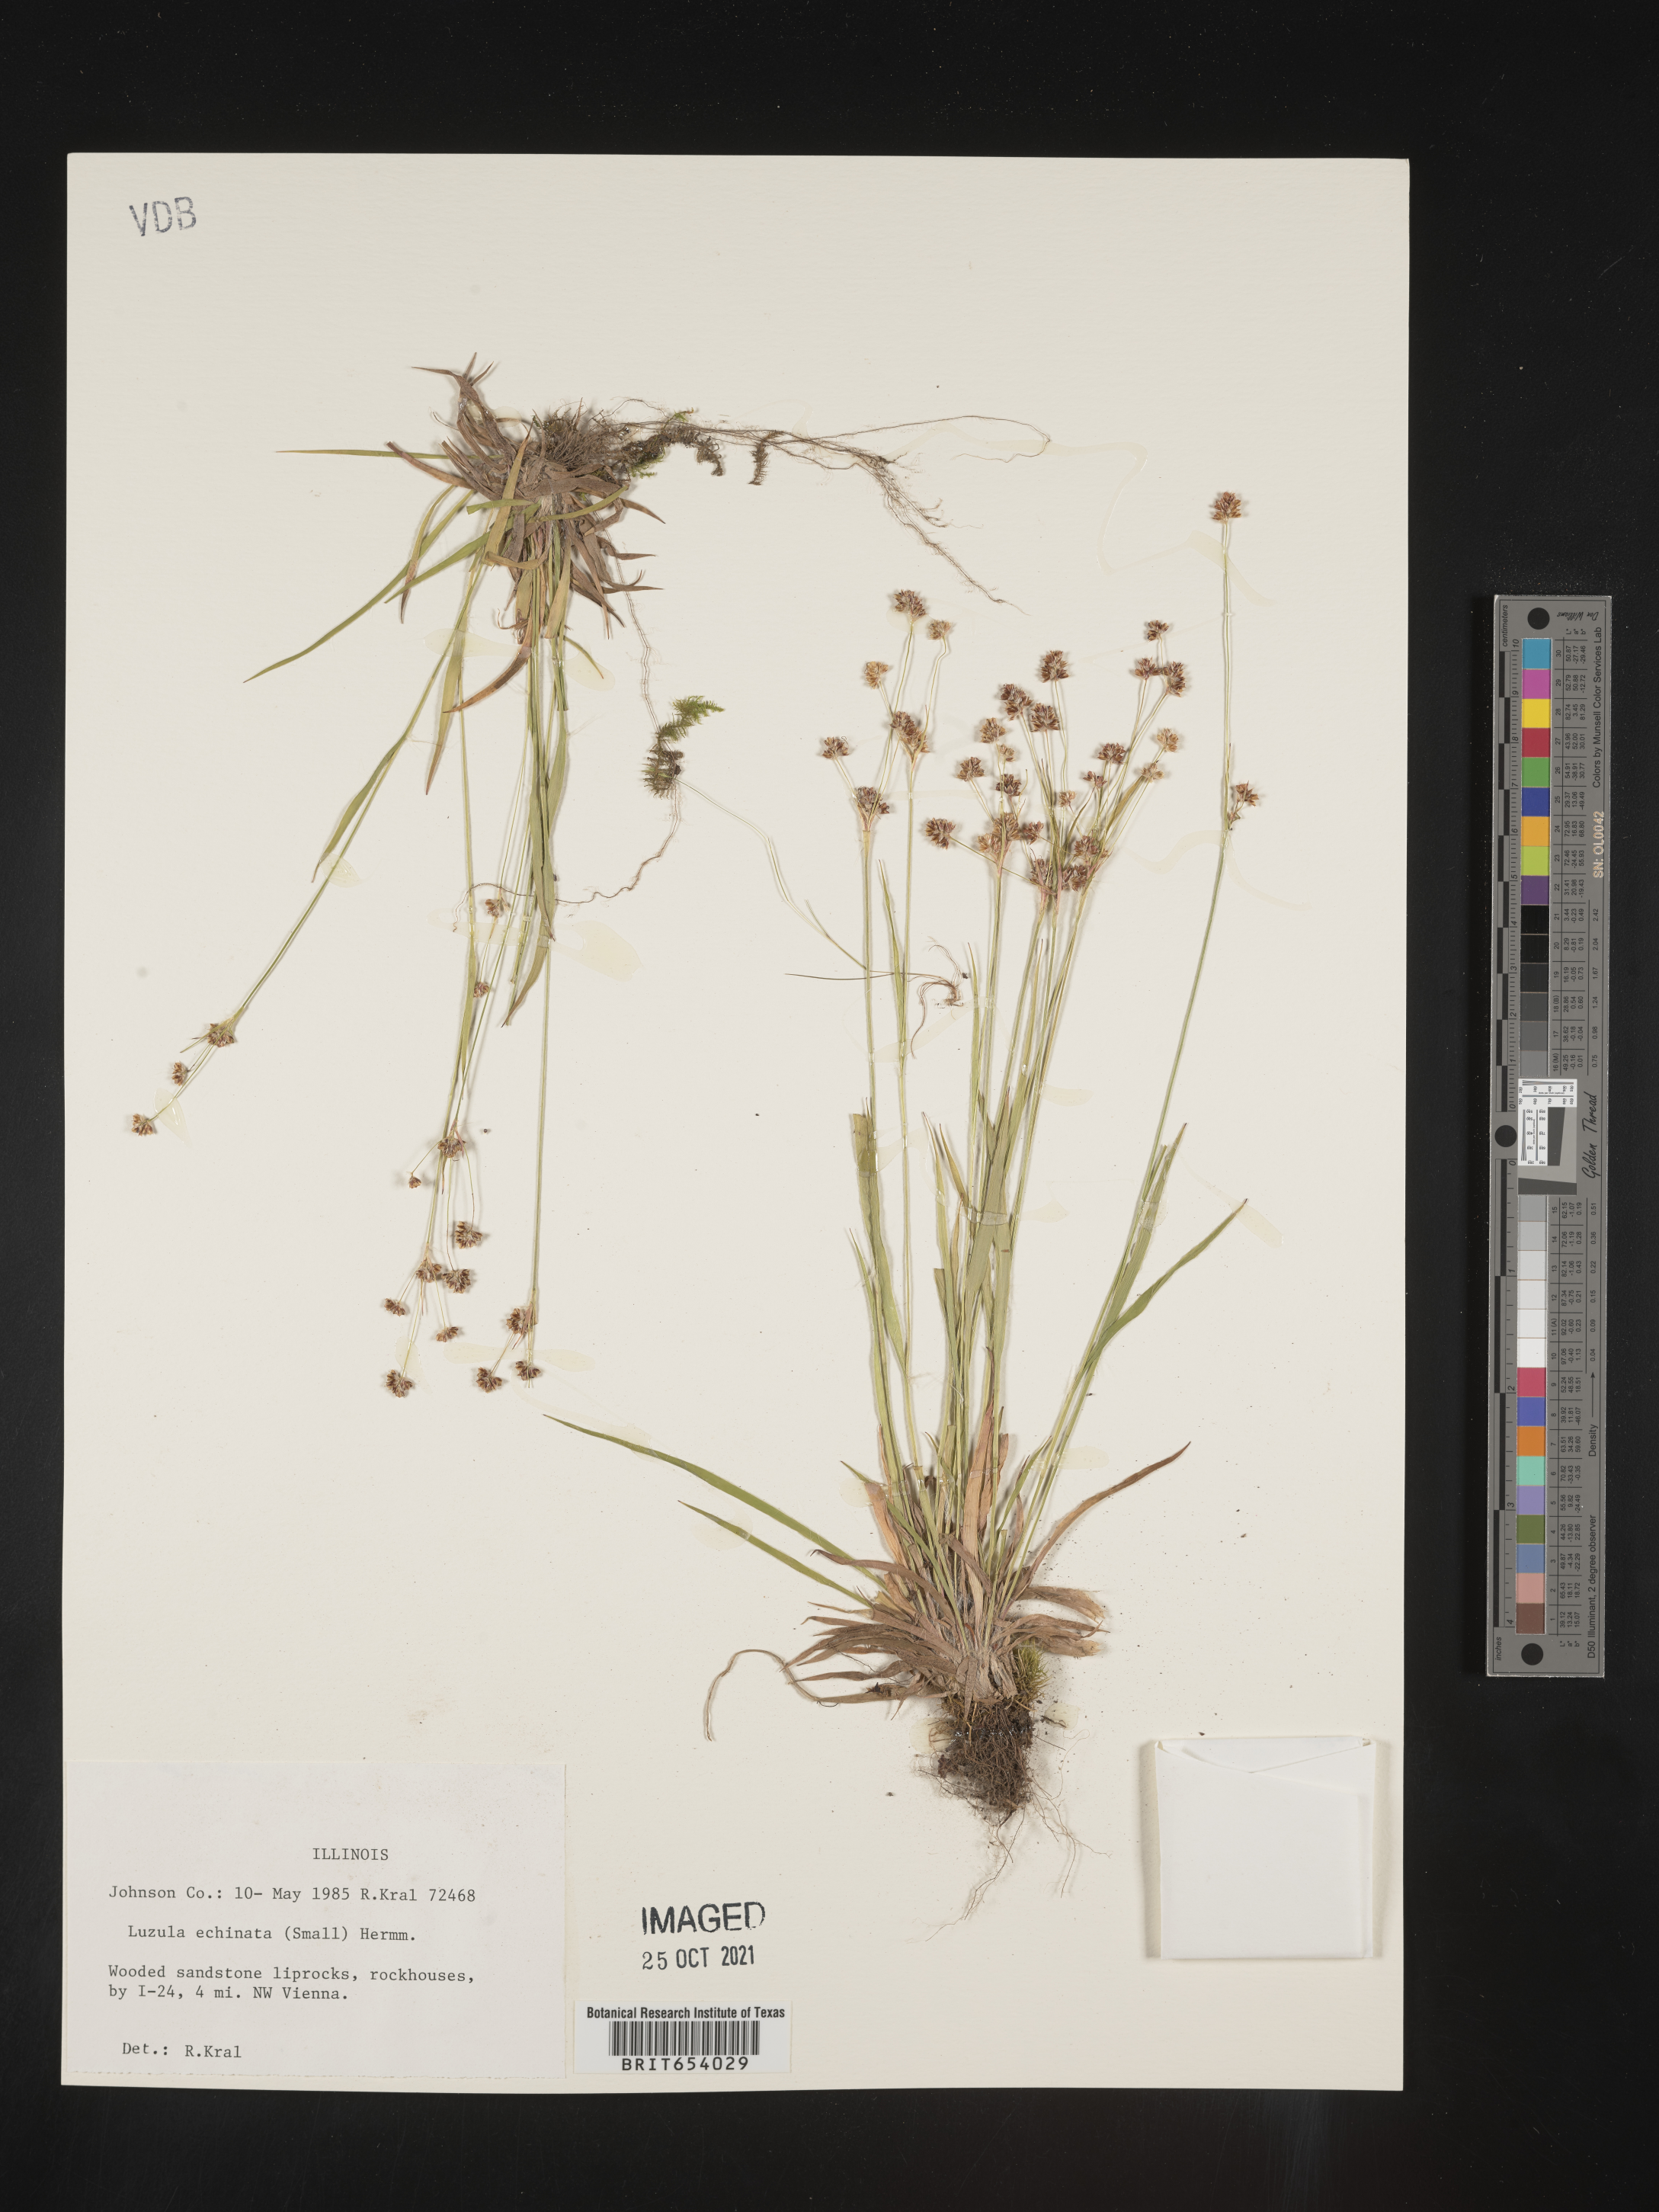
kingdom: Plantae
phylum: Tracheophyta
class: Liliopsida
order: Poales
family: Juncaceae
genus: Luzula
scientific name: Luzula echinata
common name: Hedgehog woodrush
